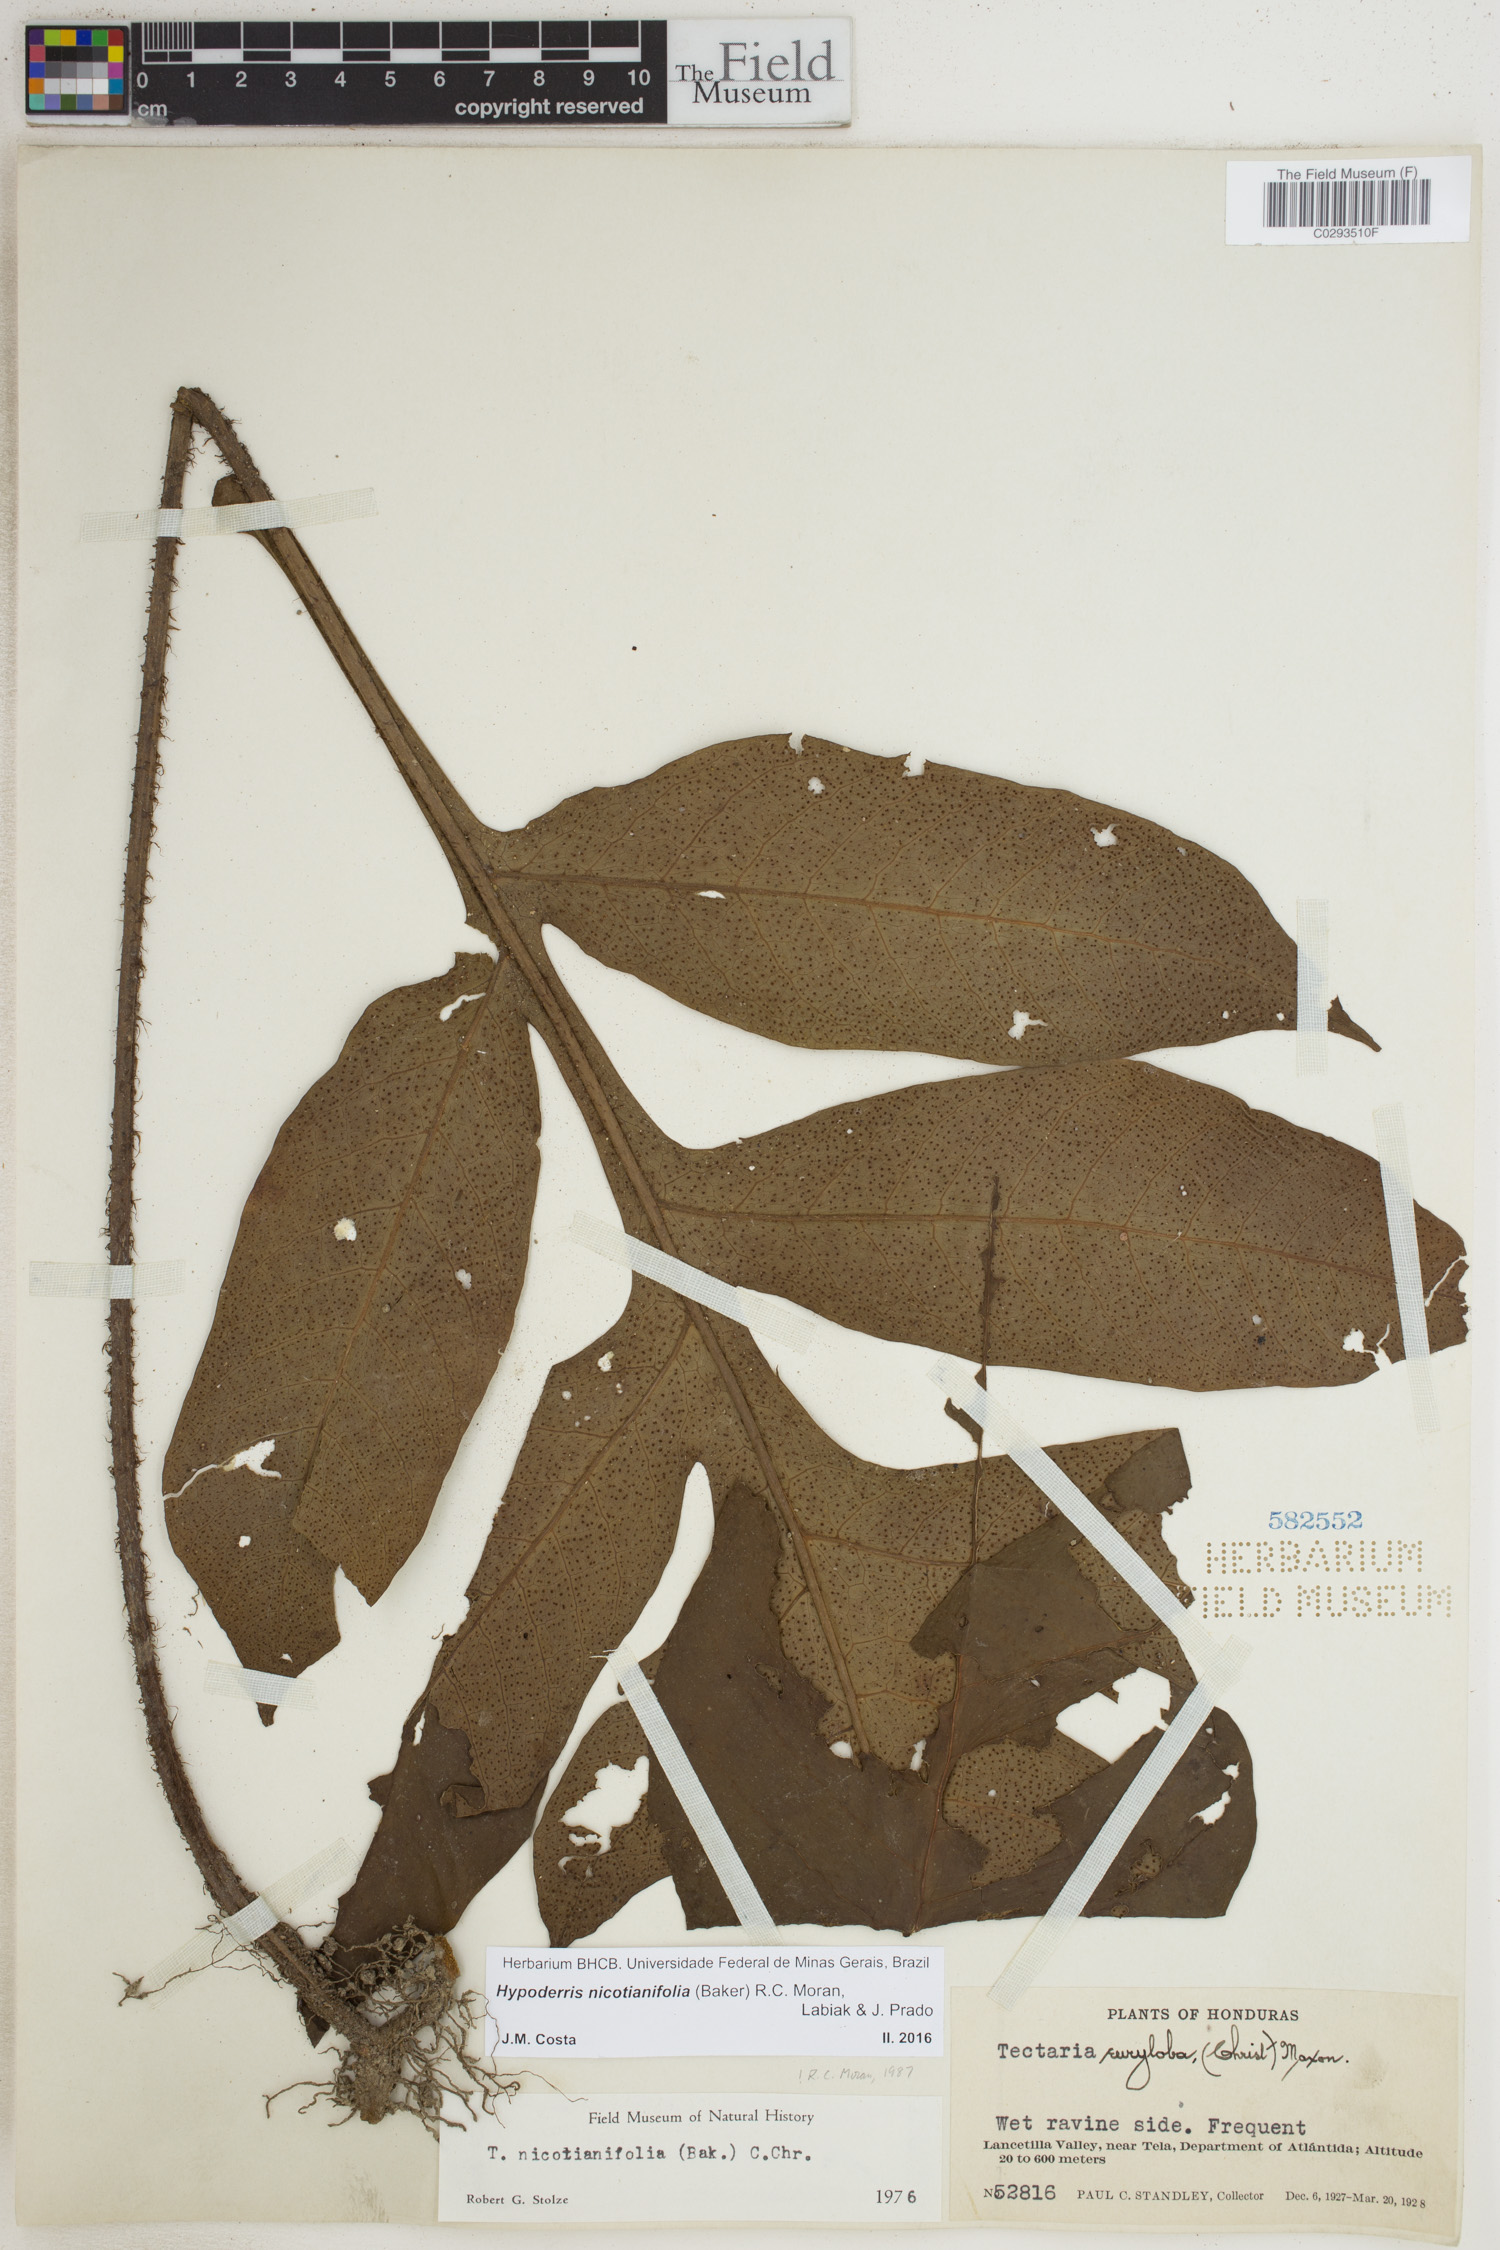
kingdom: Plantae
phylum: Tracheophyta
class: Polypodiopsida
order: Polypodiales
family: Tectariaceae
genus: Hypoderris
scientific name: Hypoderris nicotianifolia
